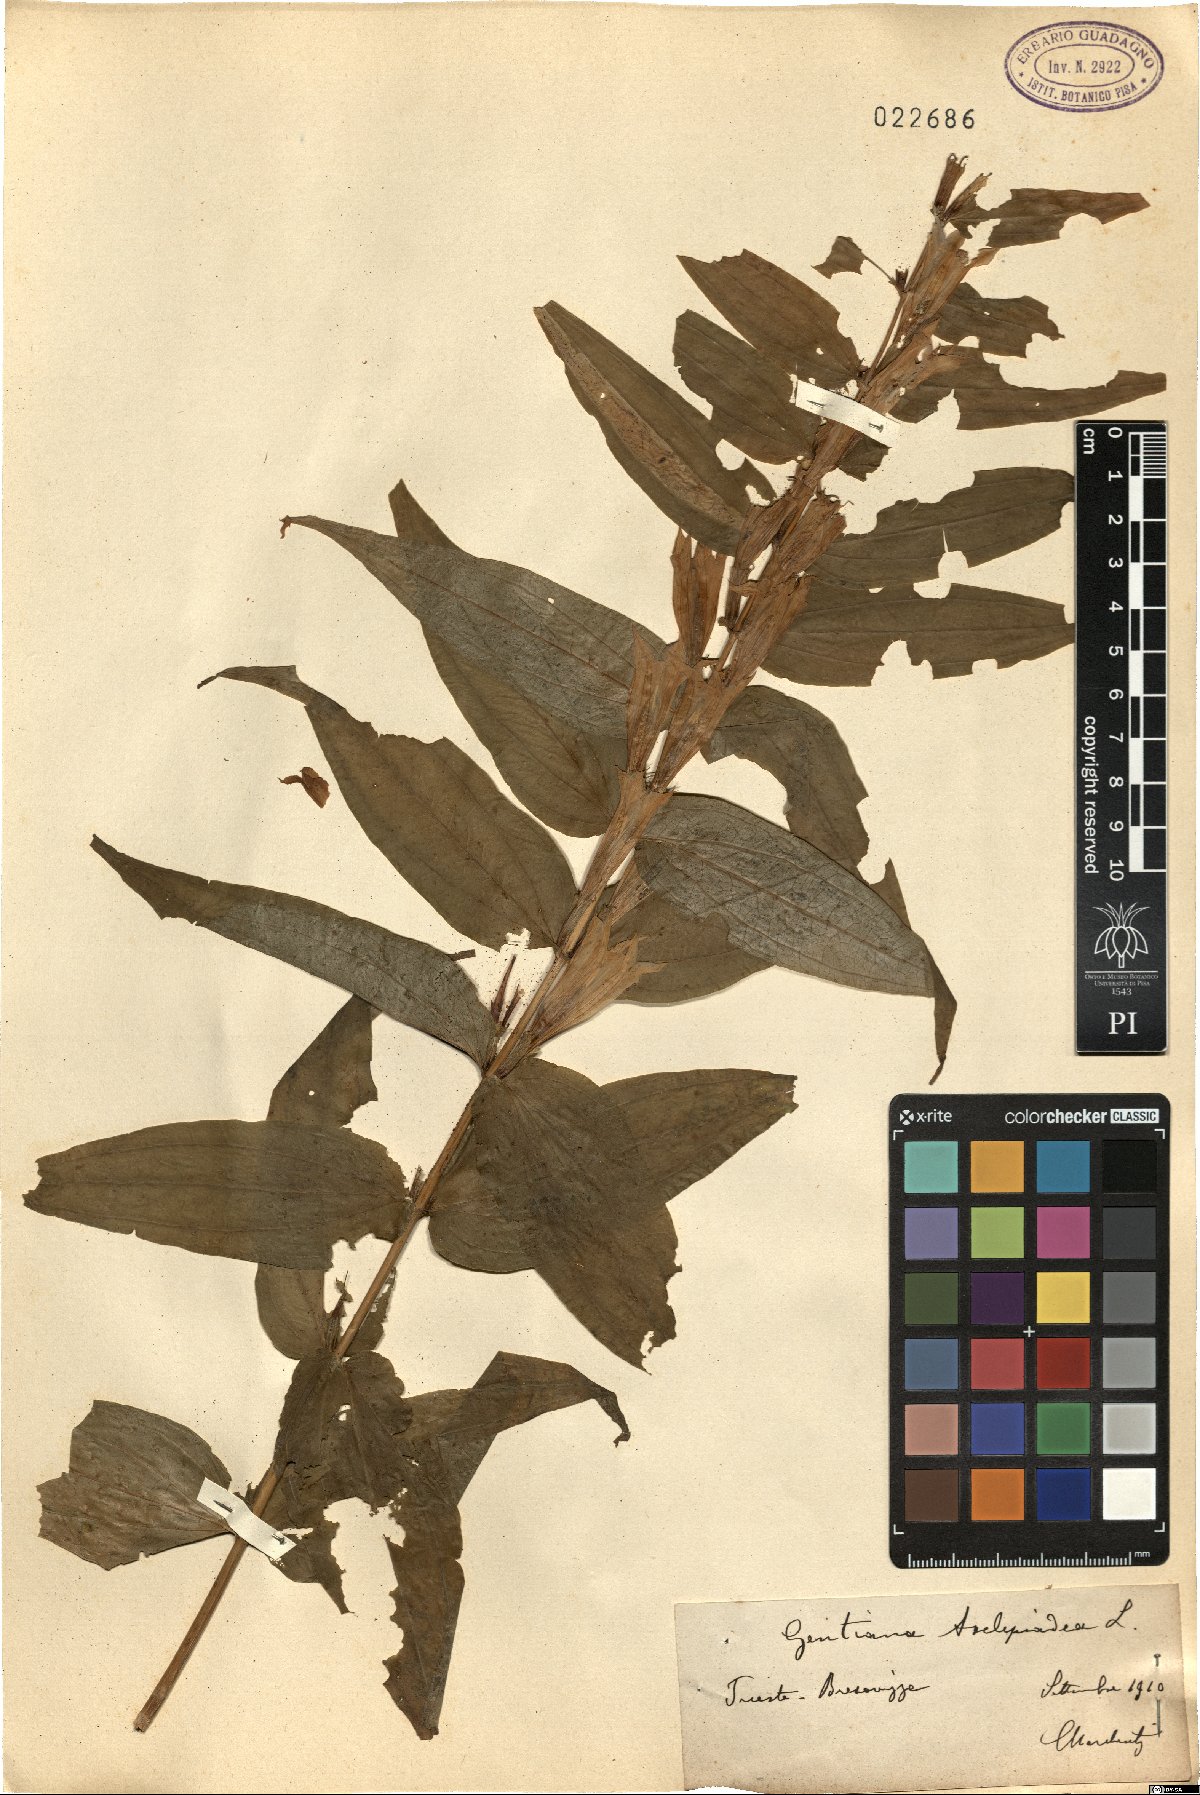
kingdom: Plantae
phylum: Tracheophyta
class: Magnoliopsida
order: Gentianales
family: Gentianaceae
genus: Gentiana
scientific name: Gentiana asclepiadea
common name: Willow gentian
